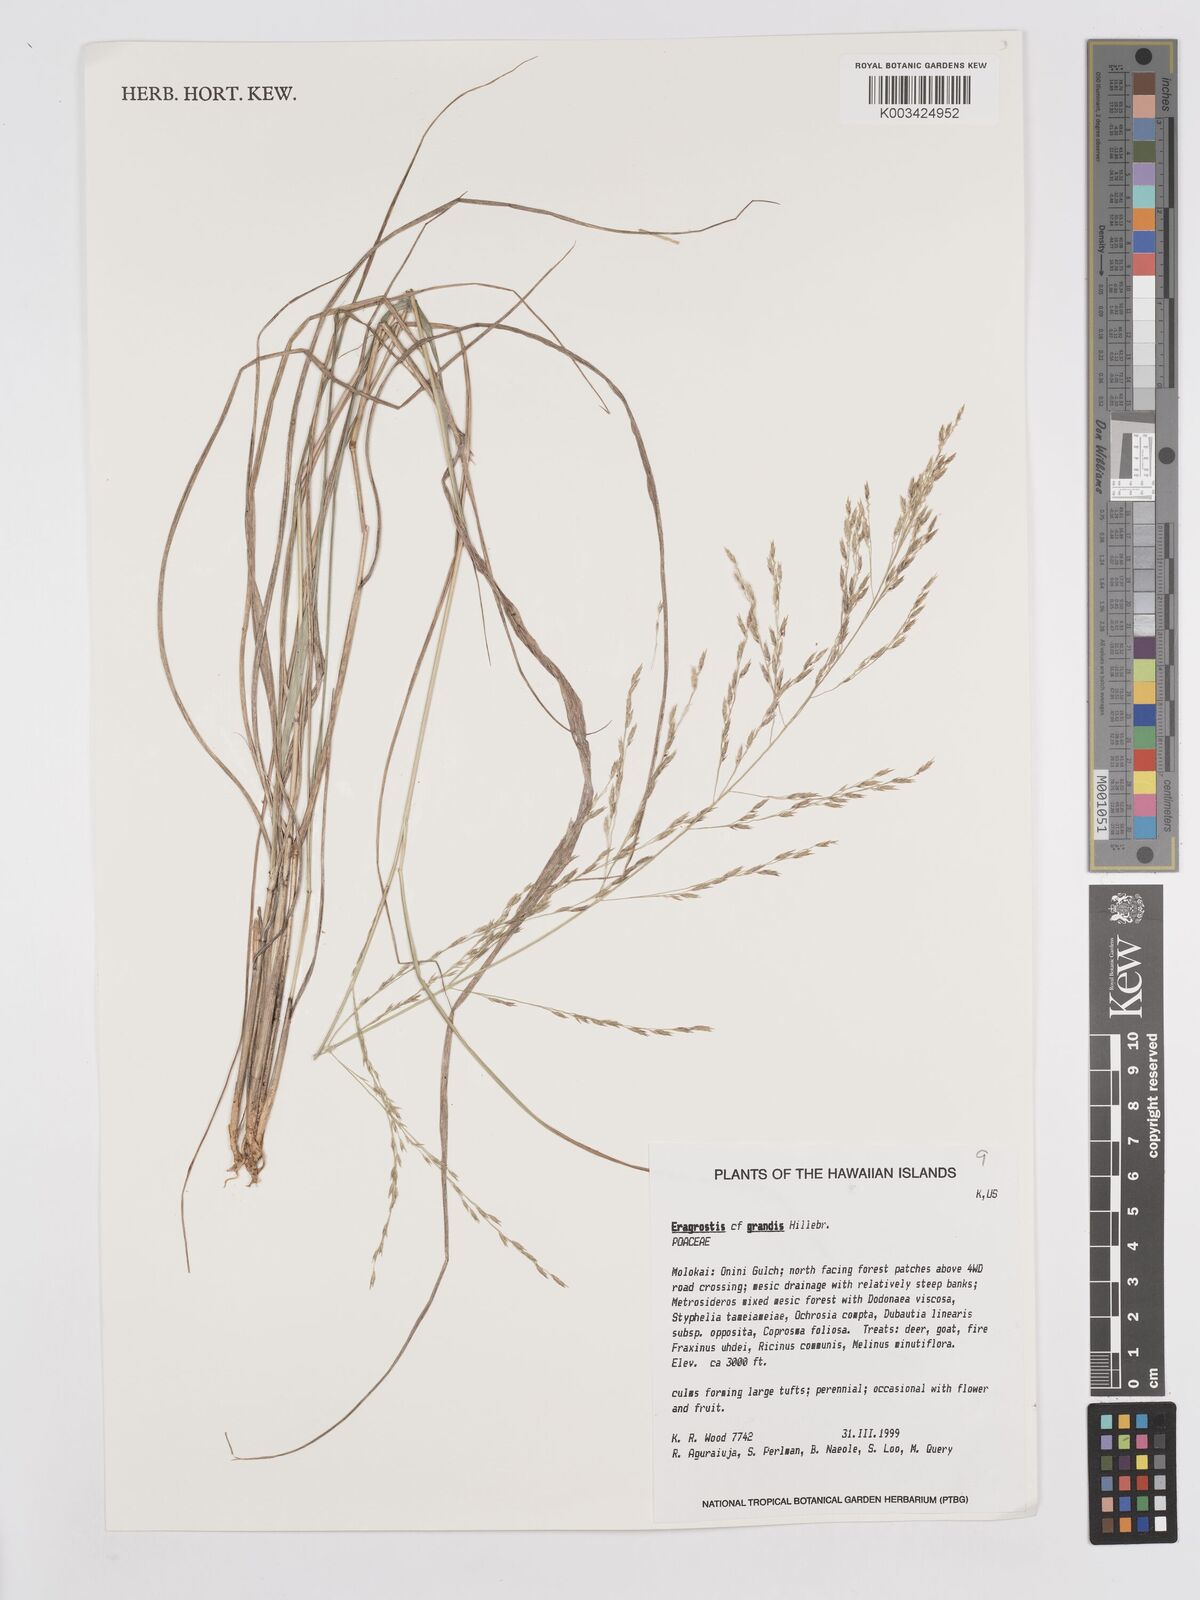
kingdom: Plantae
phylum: Tracheophyta
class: Liliopsida
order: Poales
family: Poaceae
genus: Eragrostis
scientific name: Eragrostis grandis
